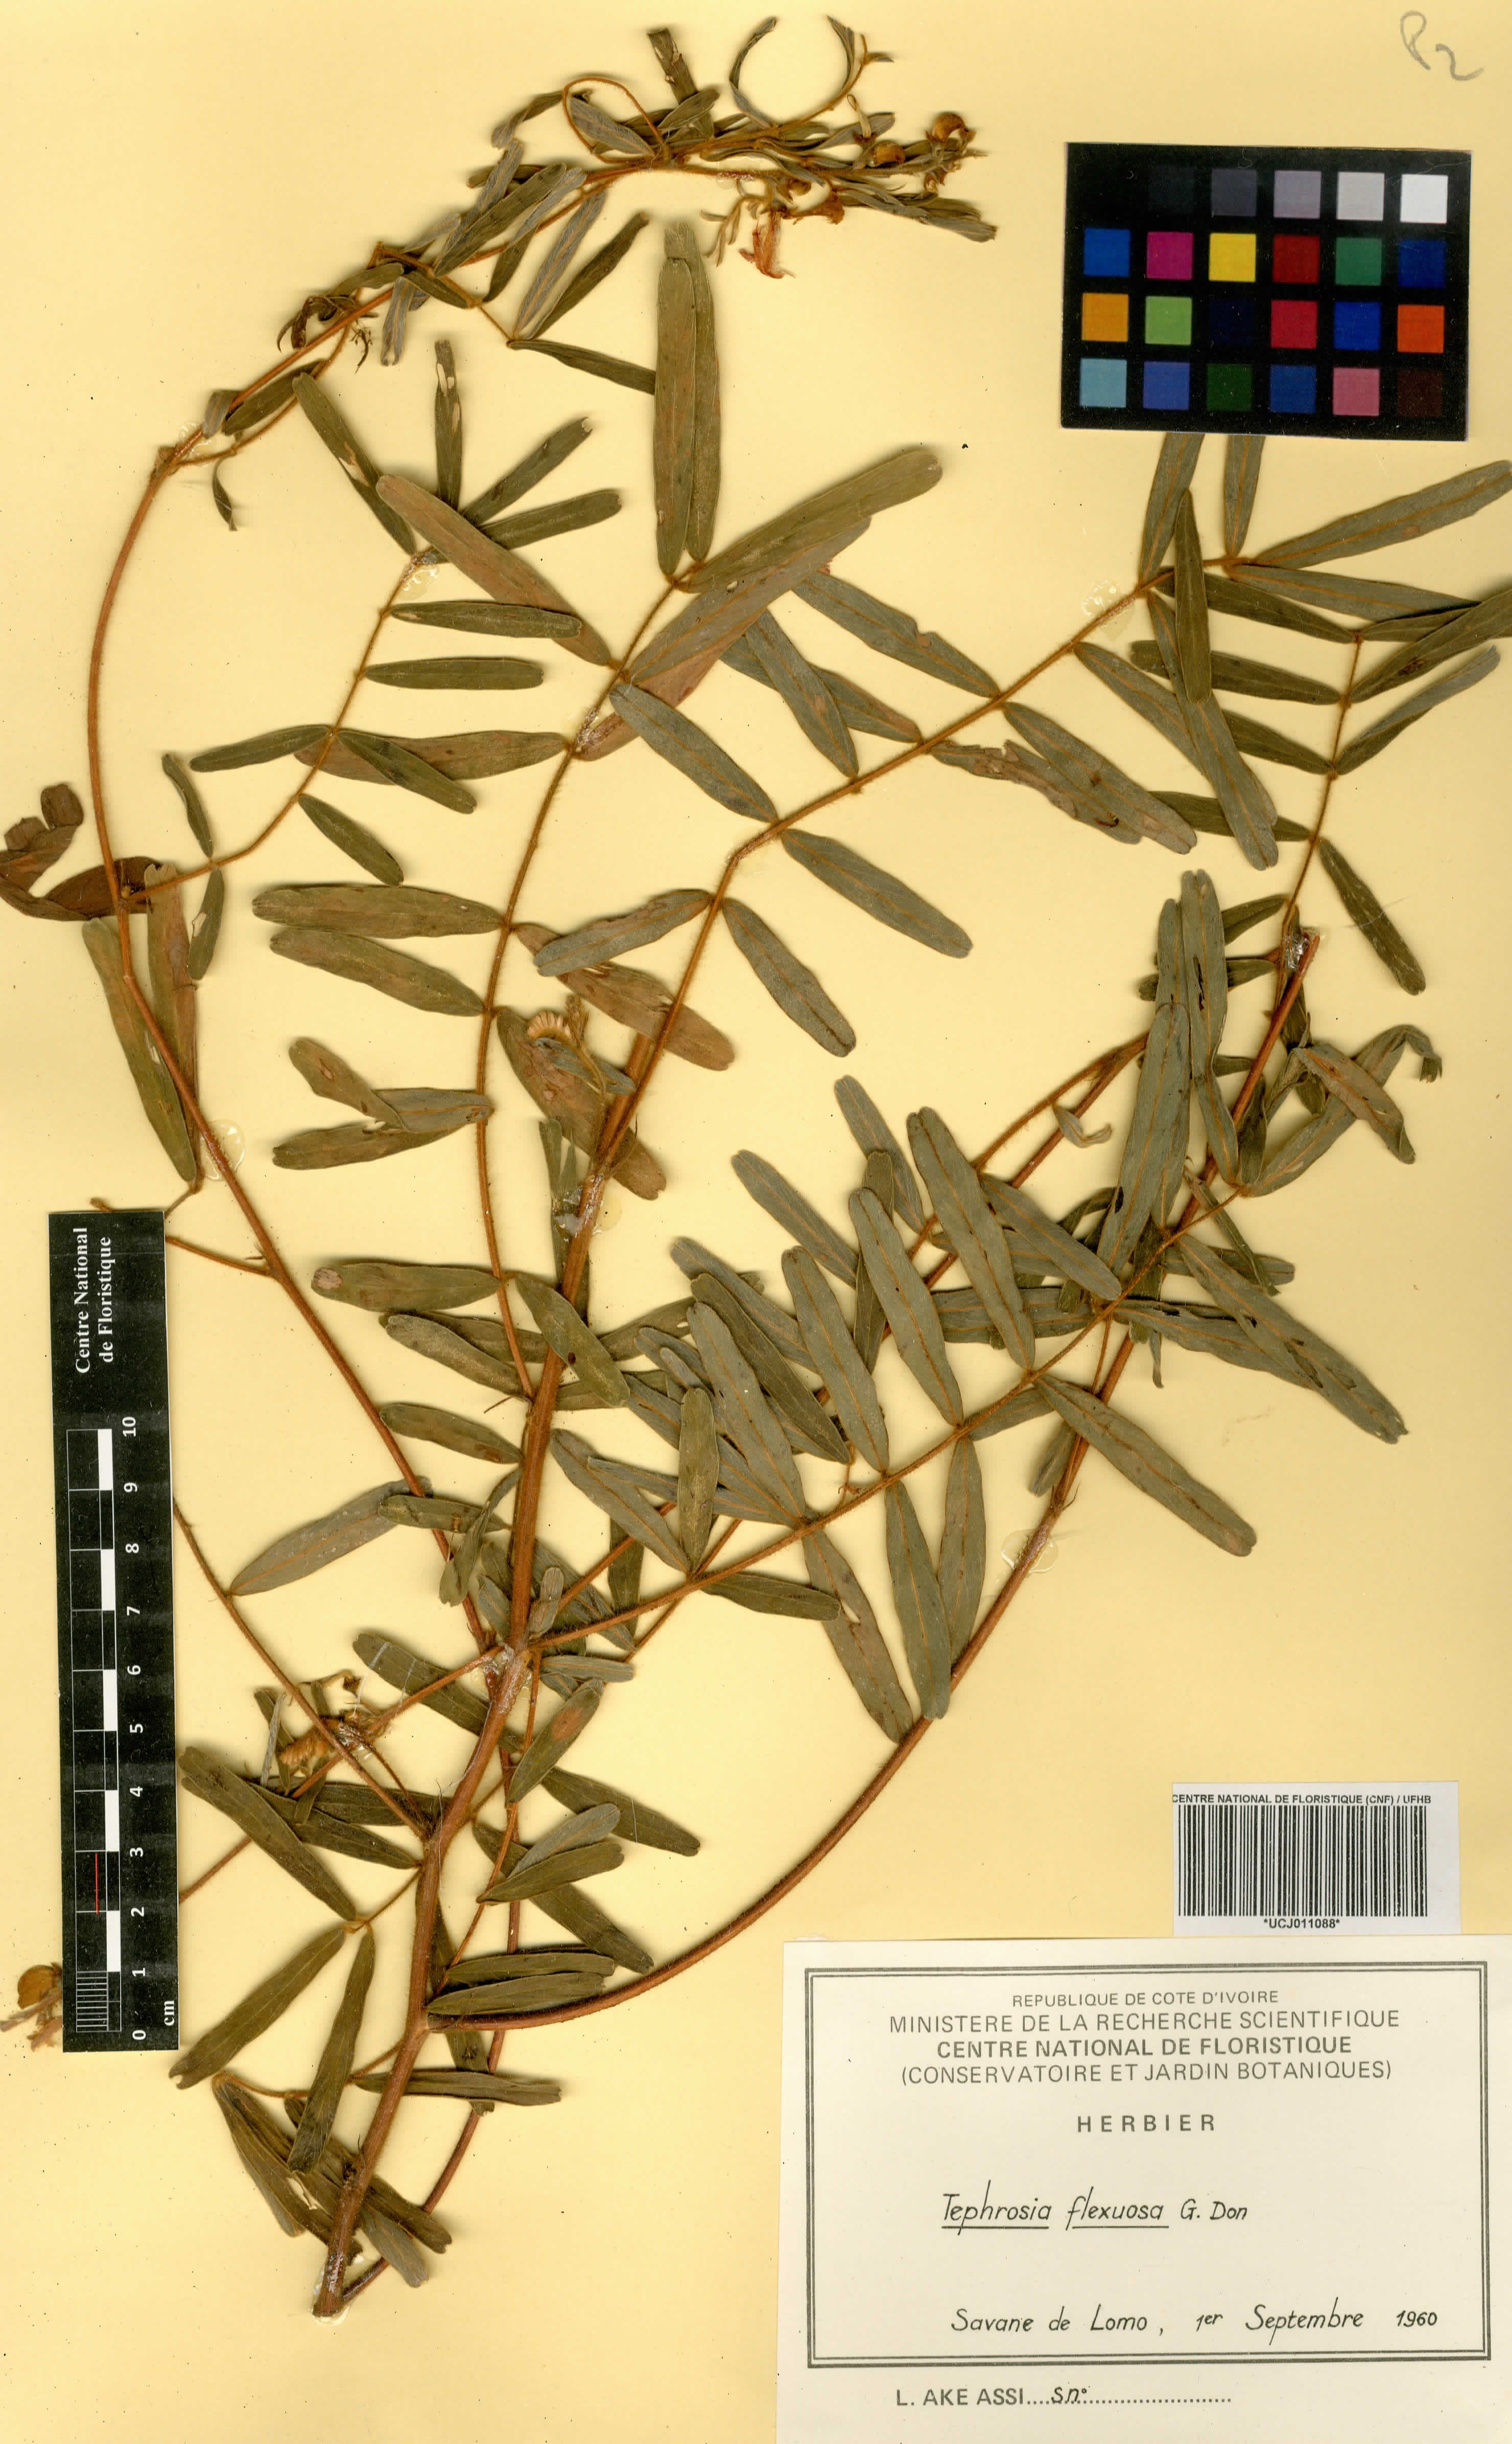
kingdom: Plantae
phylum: Tracheophyta
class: Magnoliopsida
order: Fabales
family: Fabaceae
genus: Tephrosia
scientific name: Tephrosia flexuosa
